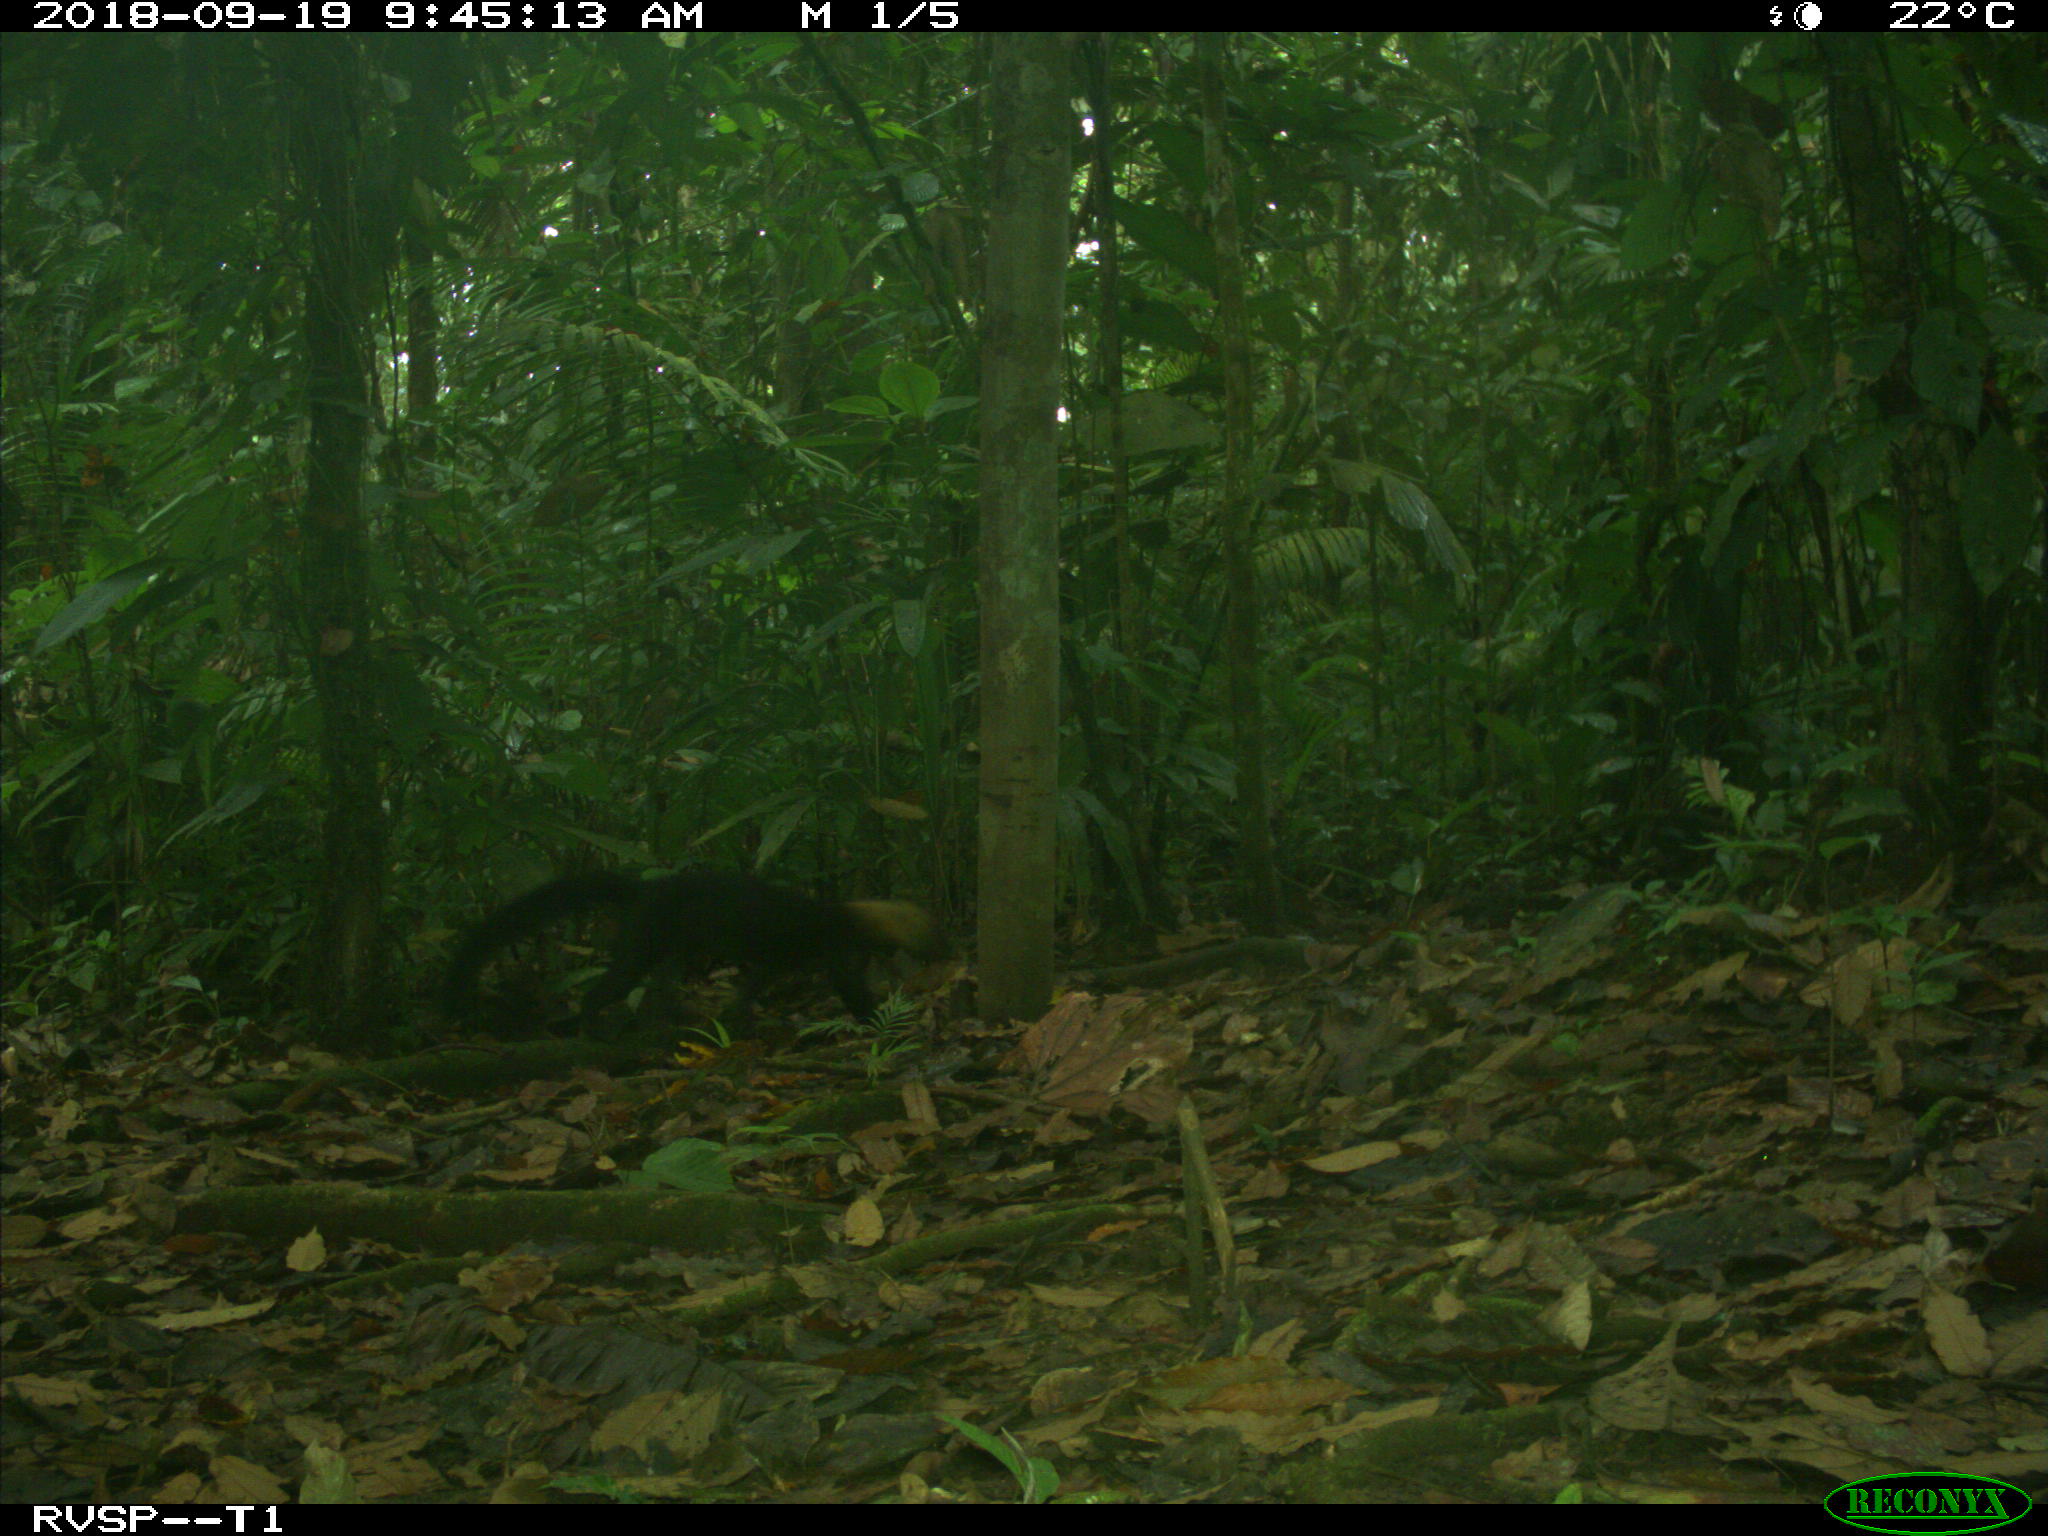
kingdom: Animalia
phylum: Chordata
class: Mammalia
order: Carnivora
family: Mustelidae
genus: Eira
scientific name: Eira barbara
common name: Tayra
